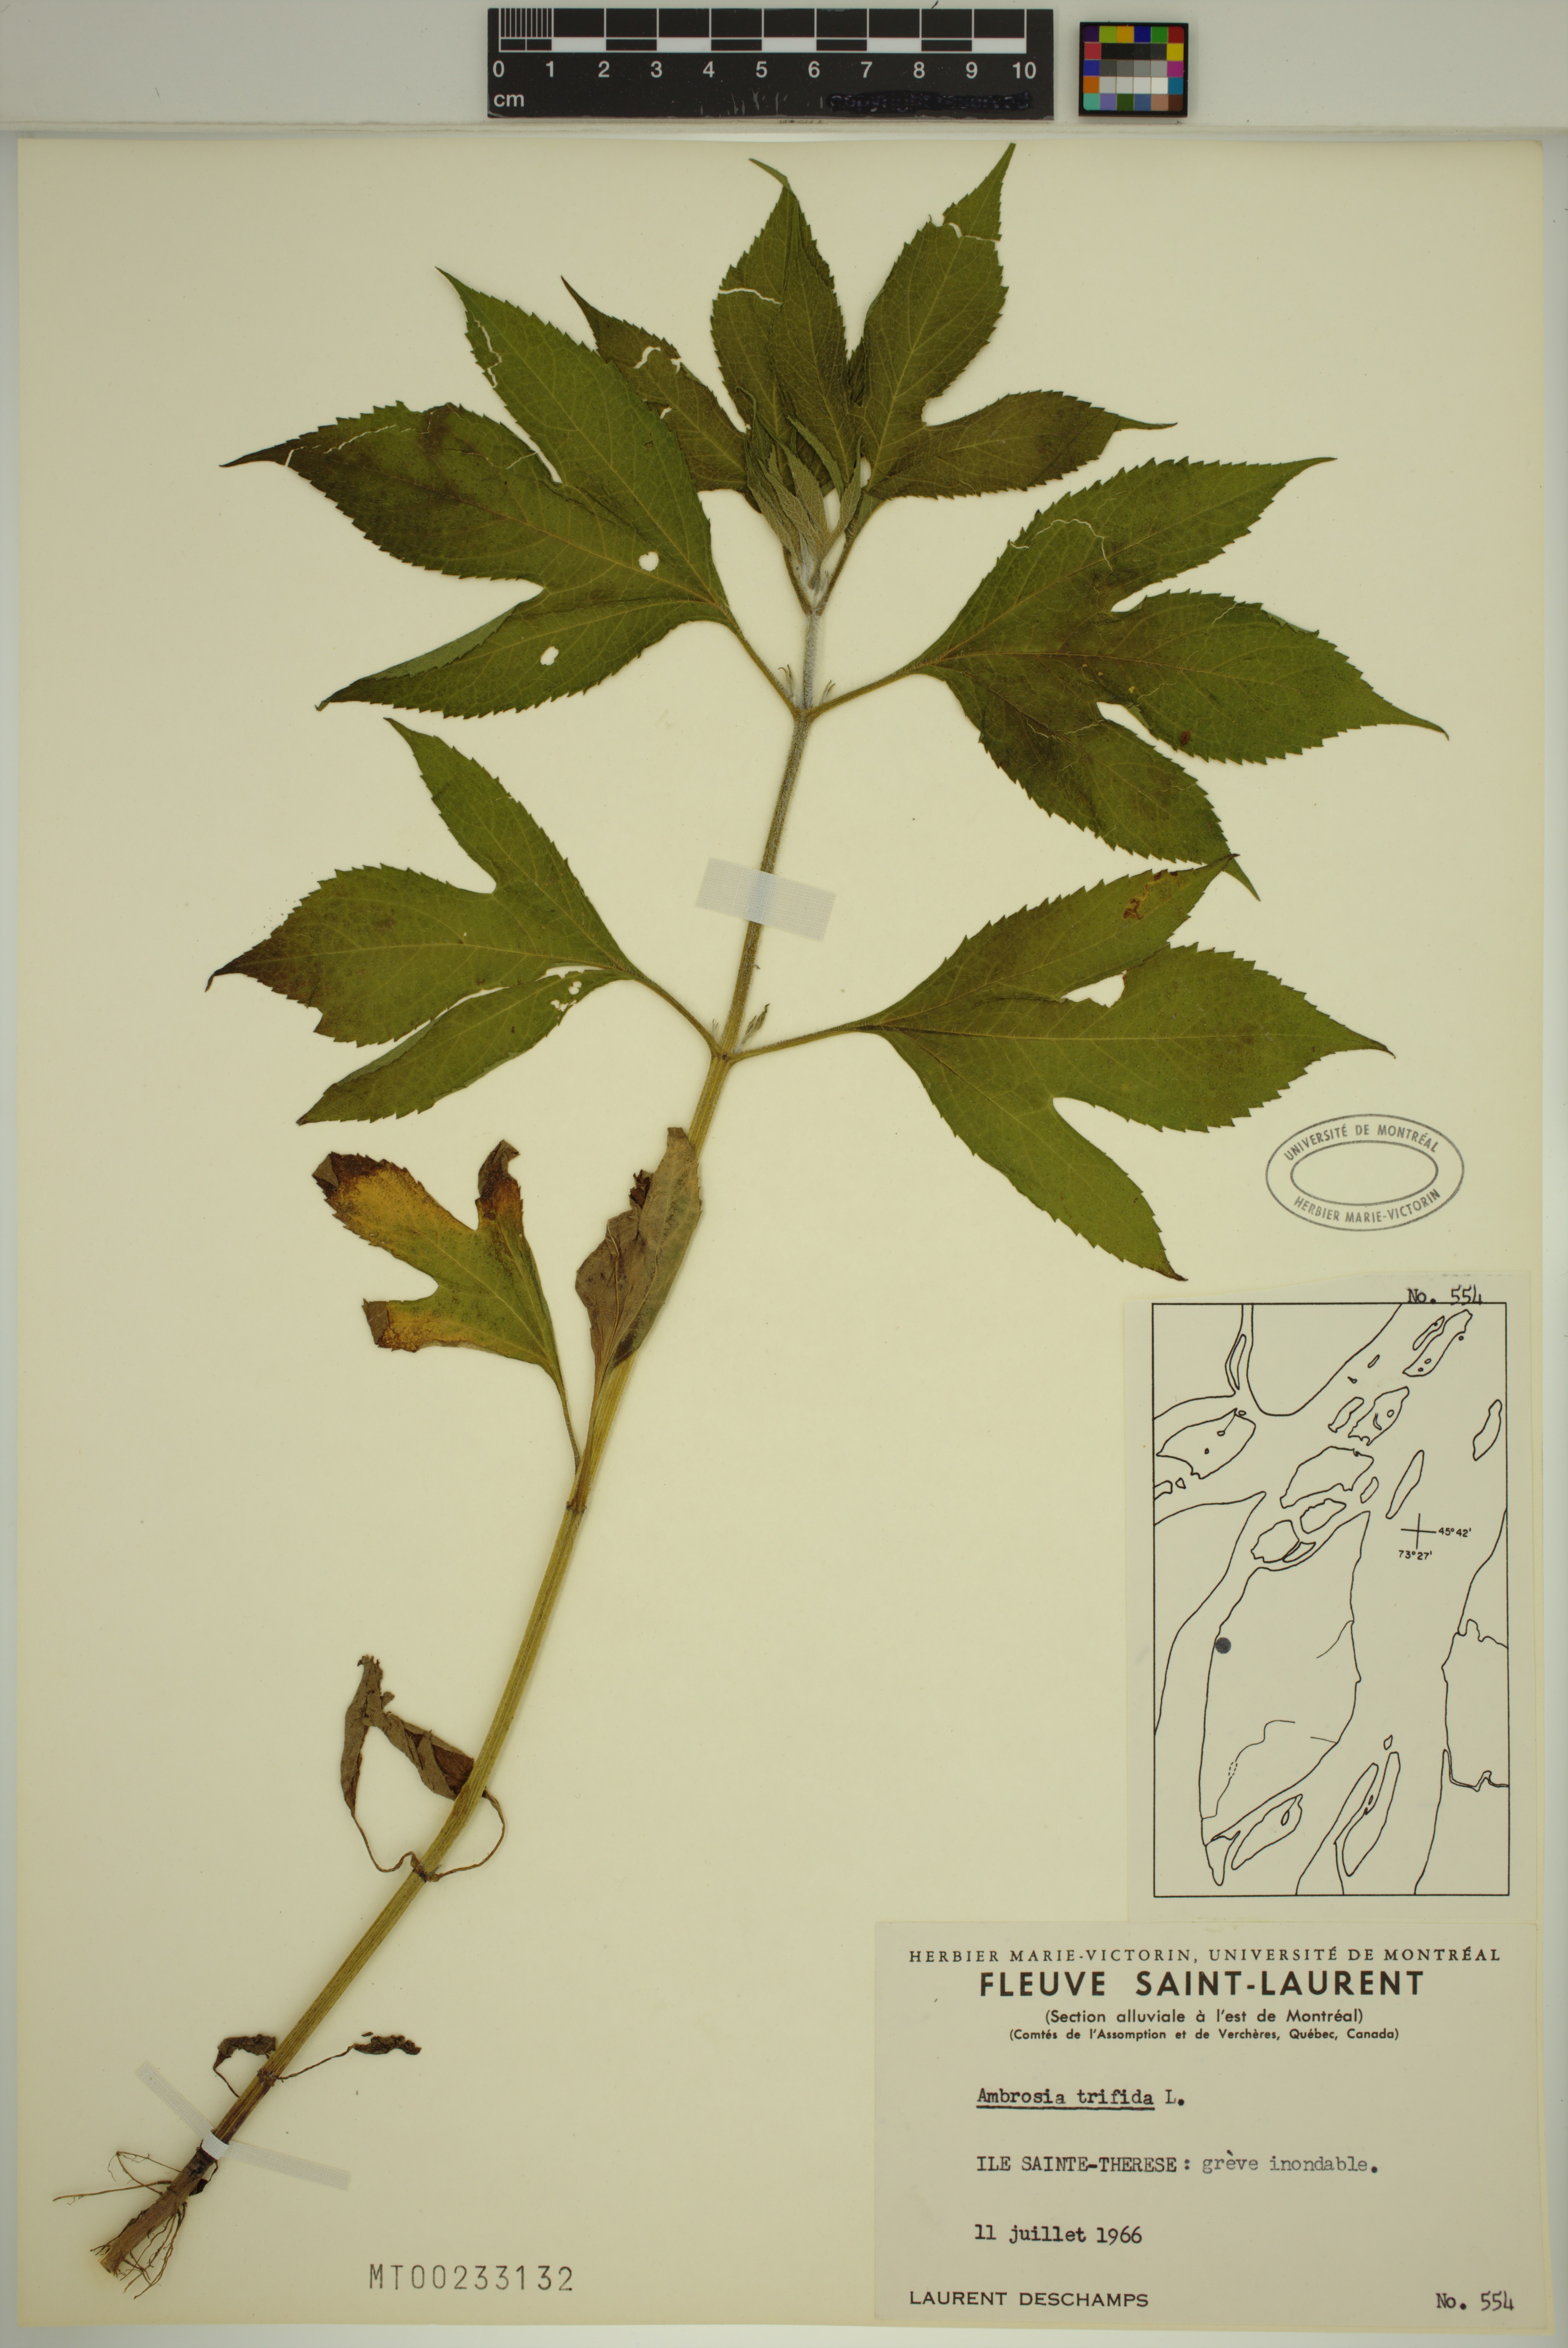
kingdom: Plantae
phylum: Tracheophyta
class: Magnoliopsida
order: Asterales
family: Asteraceae
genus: Ambrosia
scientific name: Ambrosia trifida
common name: Giant ragweed
